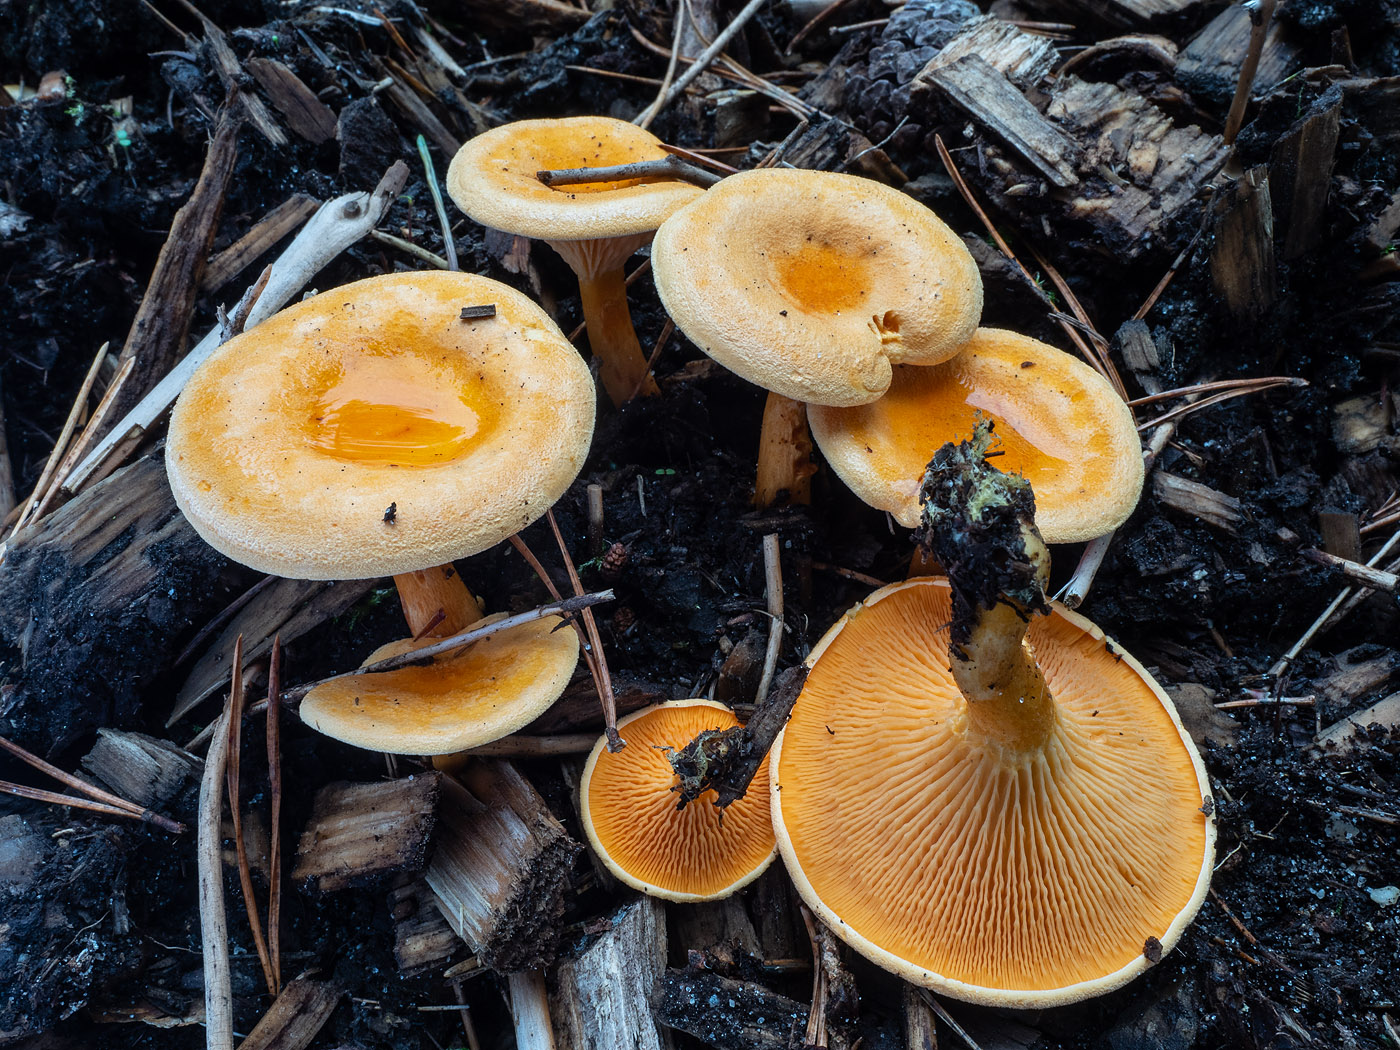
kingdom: Fungi
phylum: Basidiomycota
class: Agaricomycetes
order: Boletales
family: Hygrophoropsidaceae
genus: Hygrophoropsis
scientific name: Hygrophoropsis aurantiaca
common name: almindelig orangekantarel
